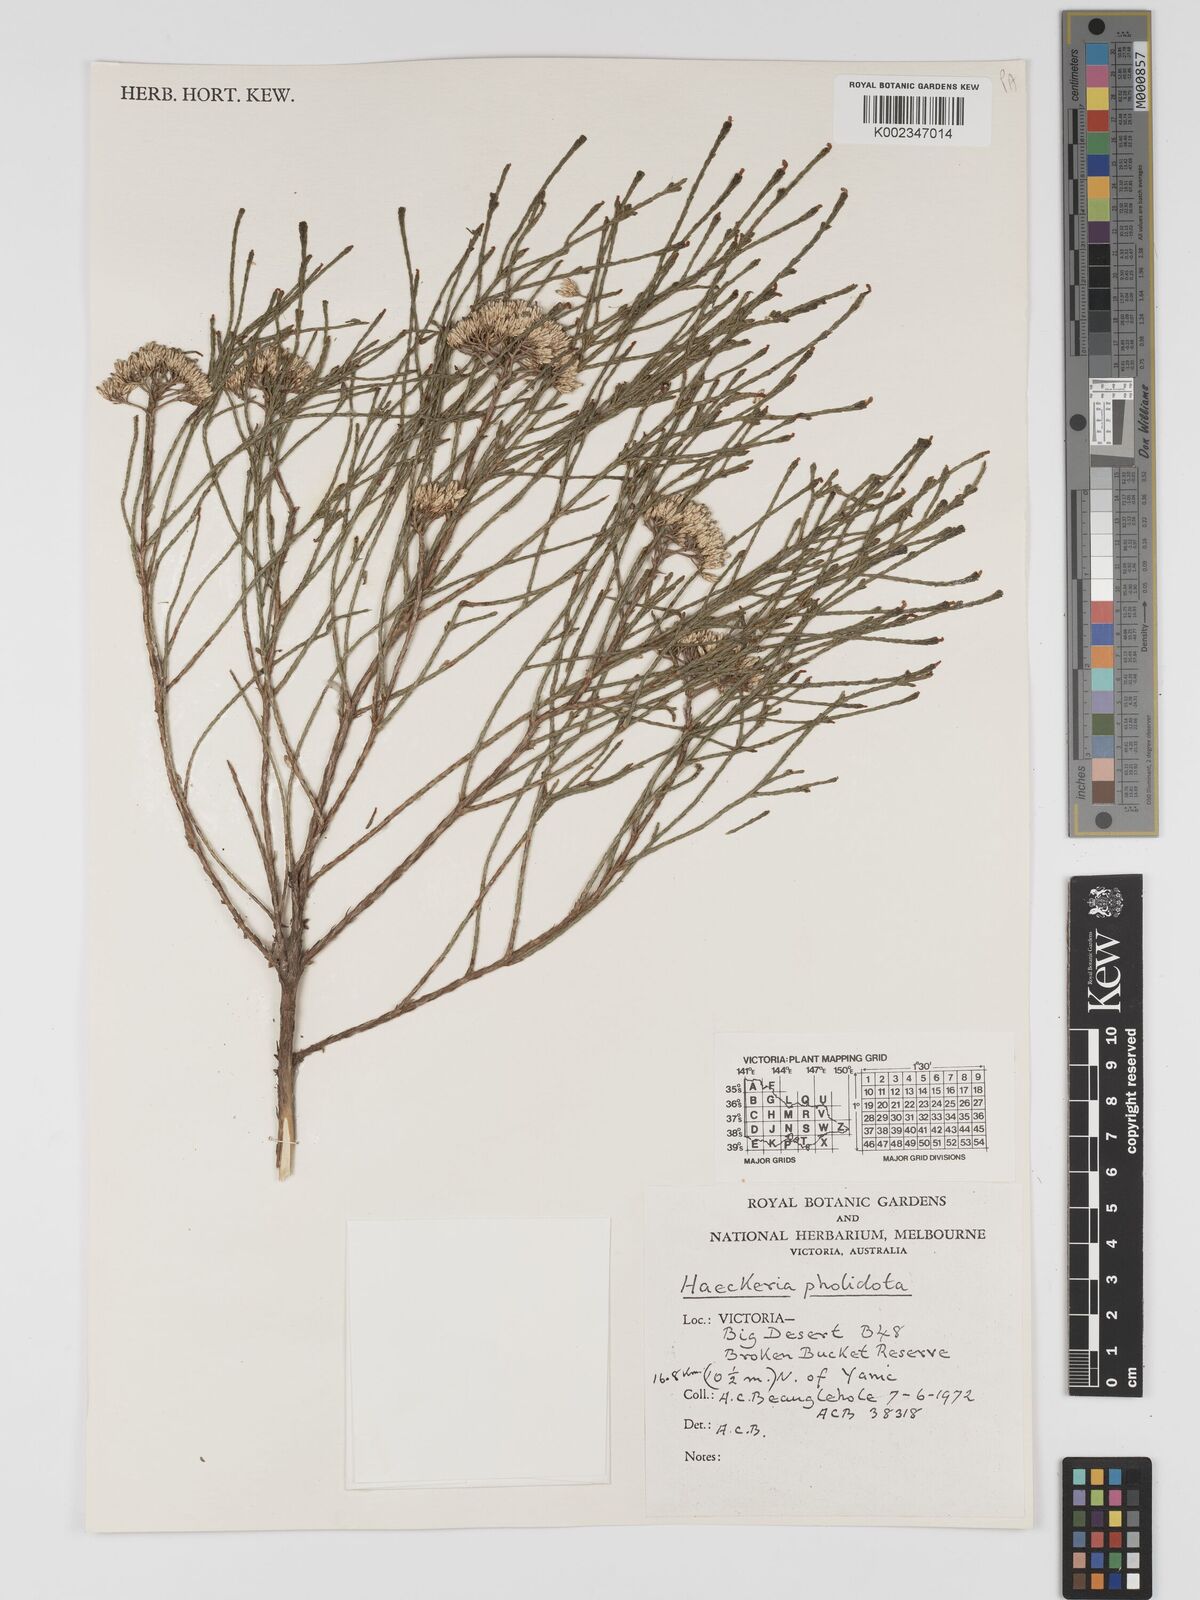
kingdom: Plantae
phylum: Tracheophyta
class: Magnoliopsida
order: Asterales
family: Asteraceae
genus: Haeckeria
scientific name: Haeckeria pholidota
